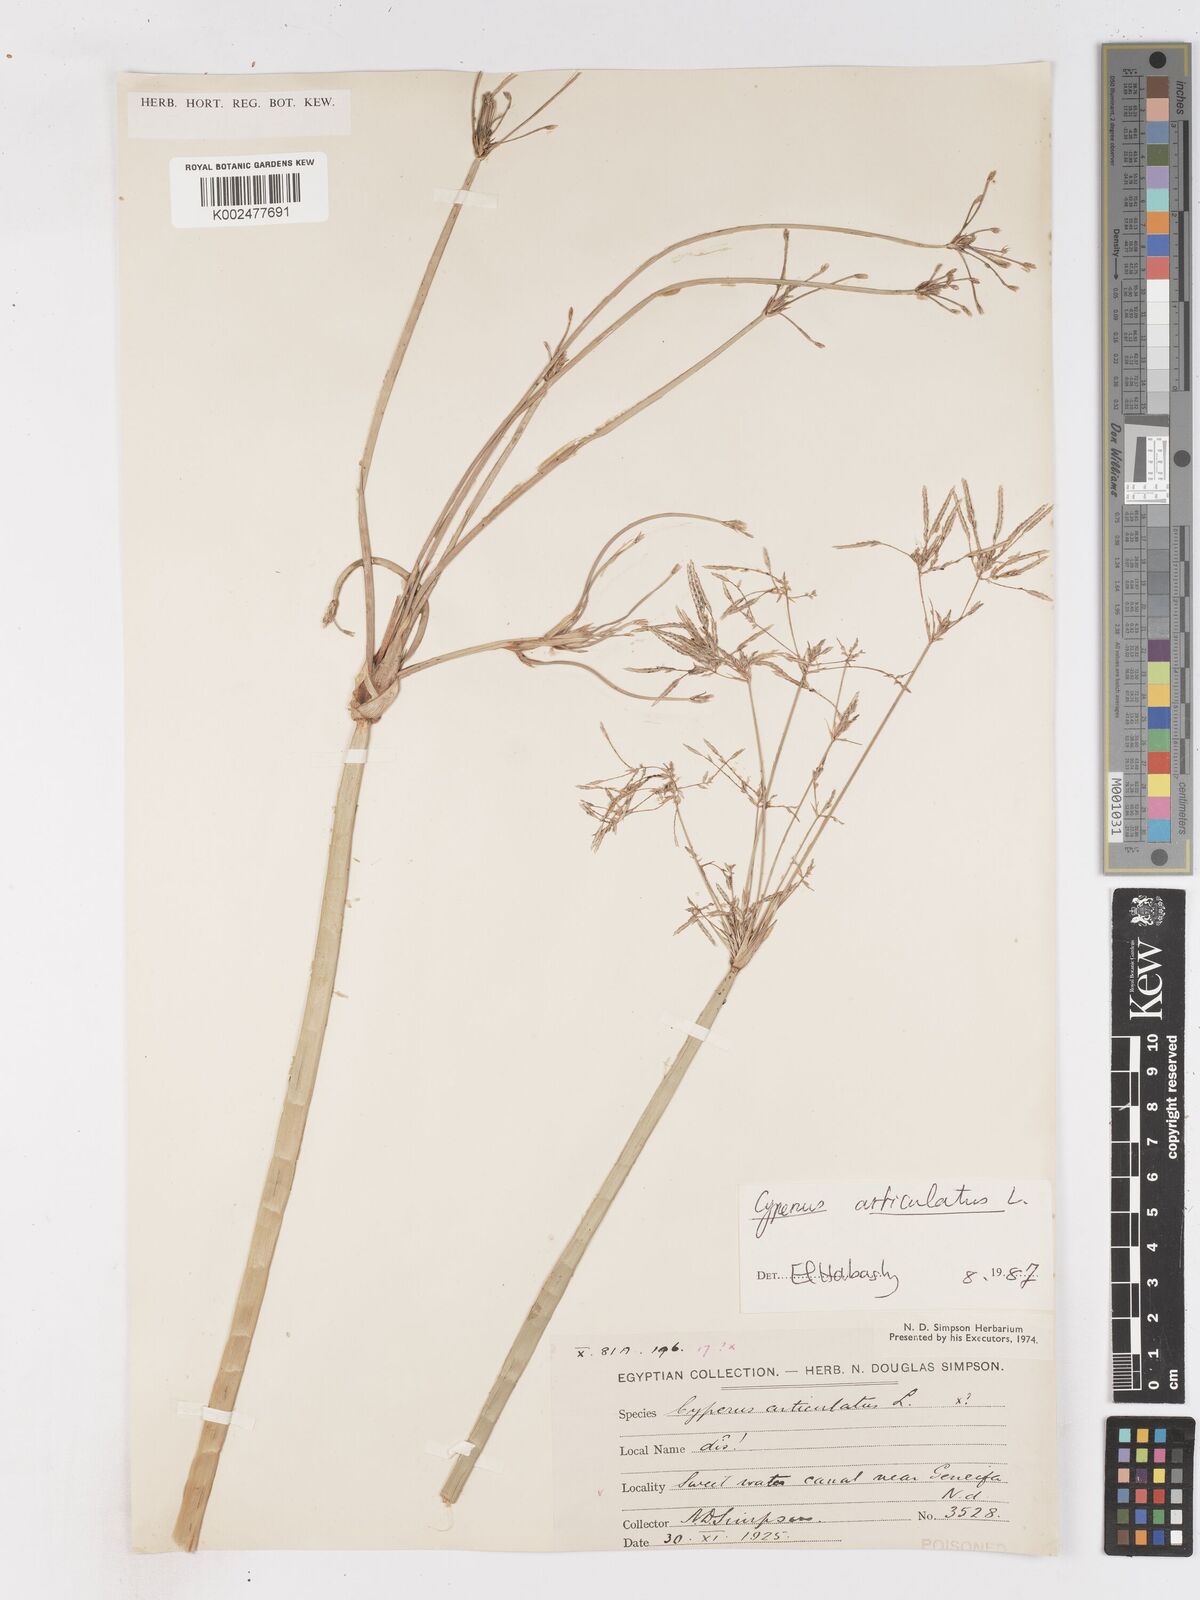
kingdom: Plantae
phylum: Tracheophyta
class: Liliopsida
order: Poales
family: Cyperaceae
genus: Cyperus
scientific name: Cyperus articulatus
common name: Jointed flatsedge
